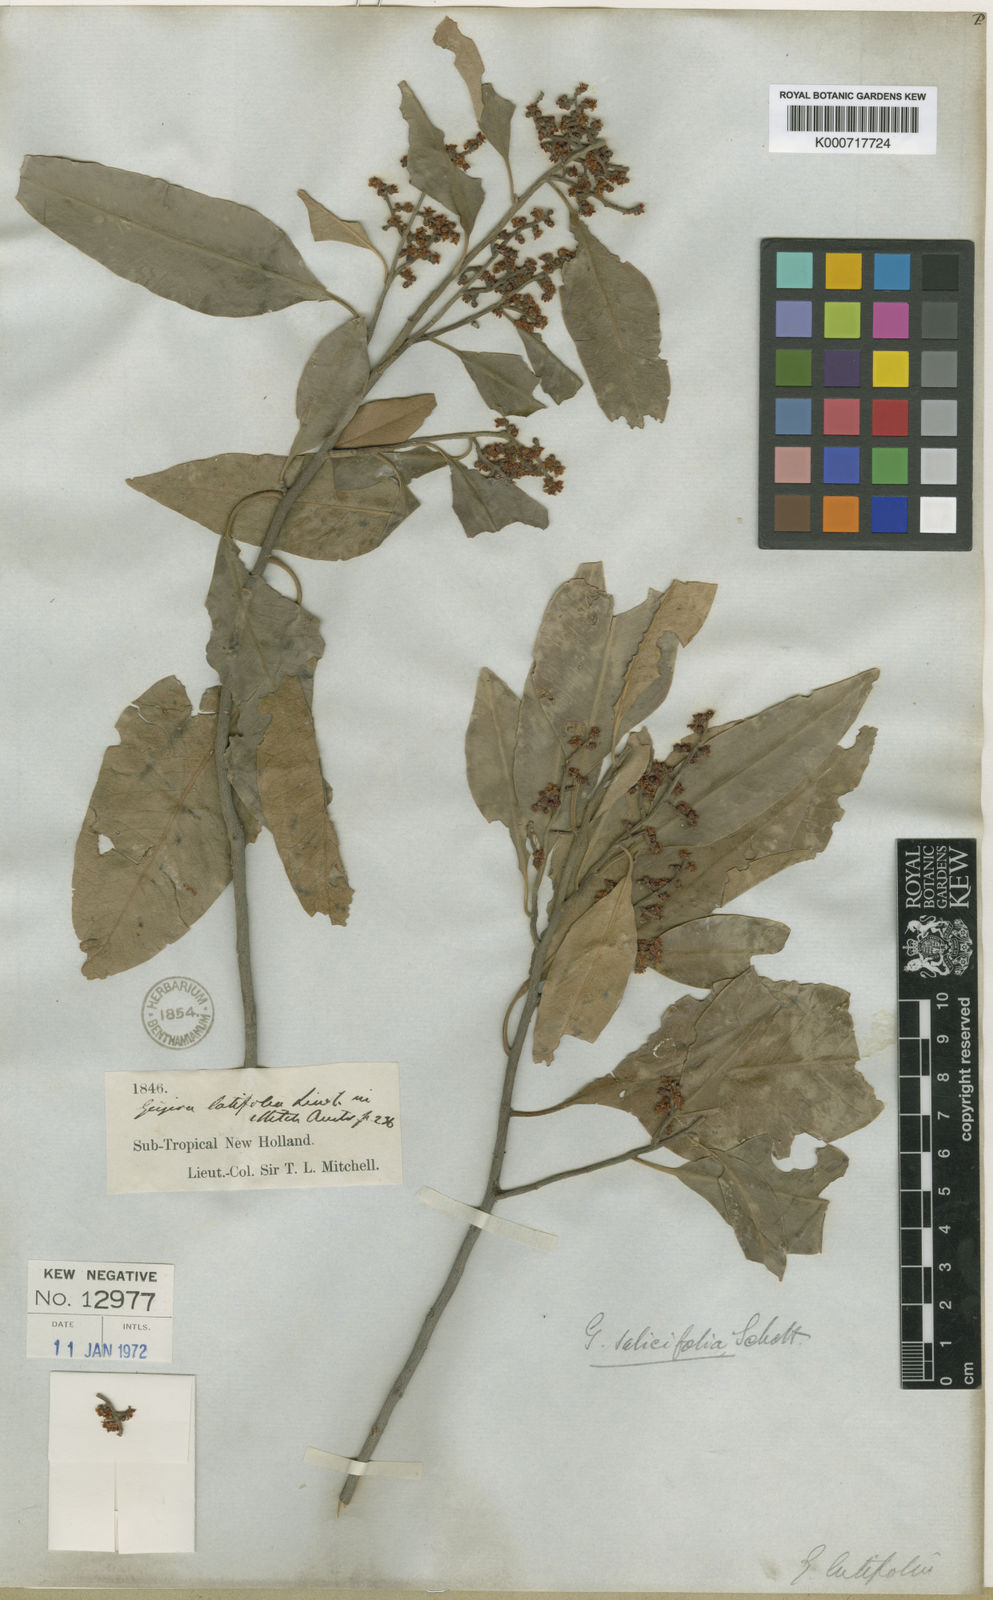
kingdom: Plantae
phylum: Tracheophyta
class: Magnoliopsida
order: Sapindales
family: Rutaceae
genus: Geijera
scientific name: Geijera salicifolia
